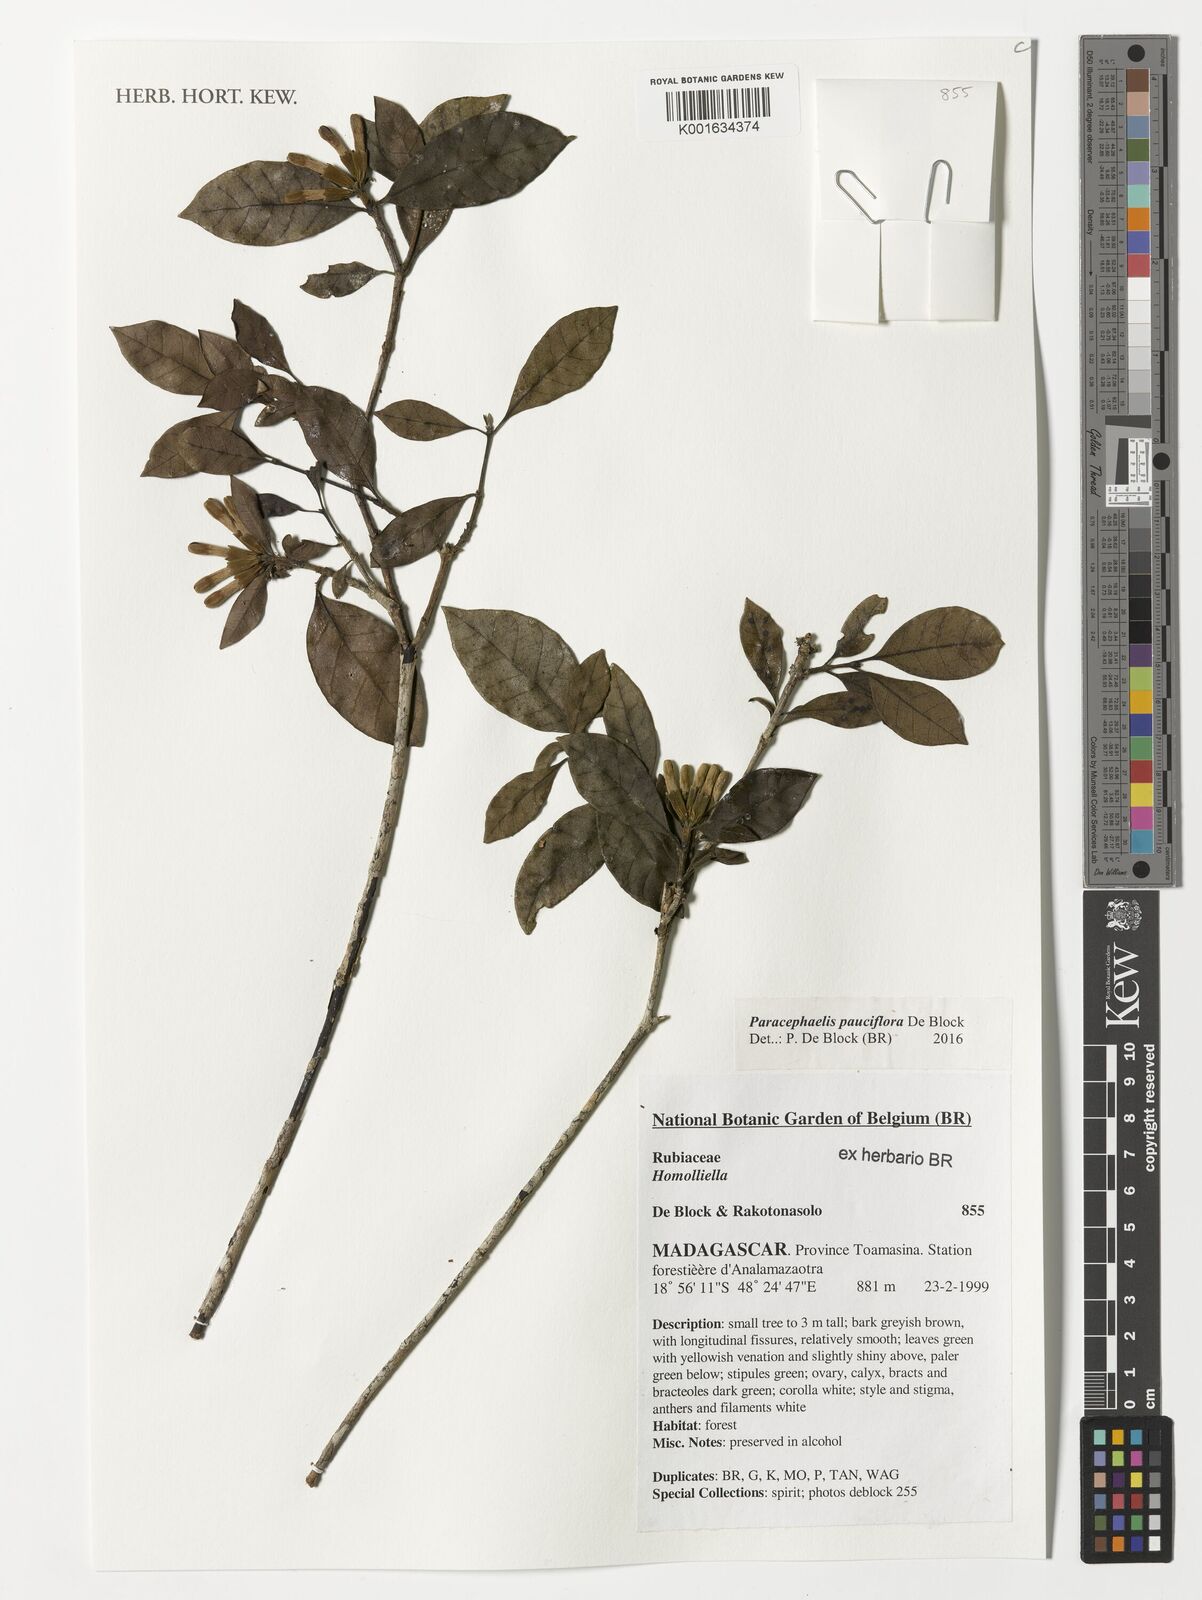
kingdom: Plantae
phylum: Tracheophyta
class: Magnoliopsida
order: Gentianales
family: Rubiaceae
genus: Paracephaelis
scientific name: Paracephaelis
